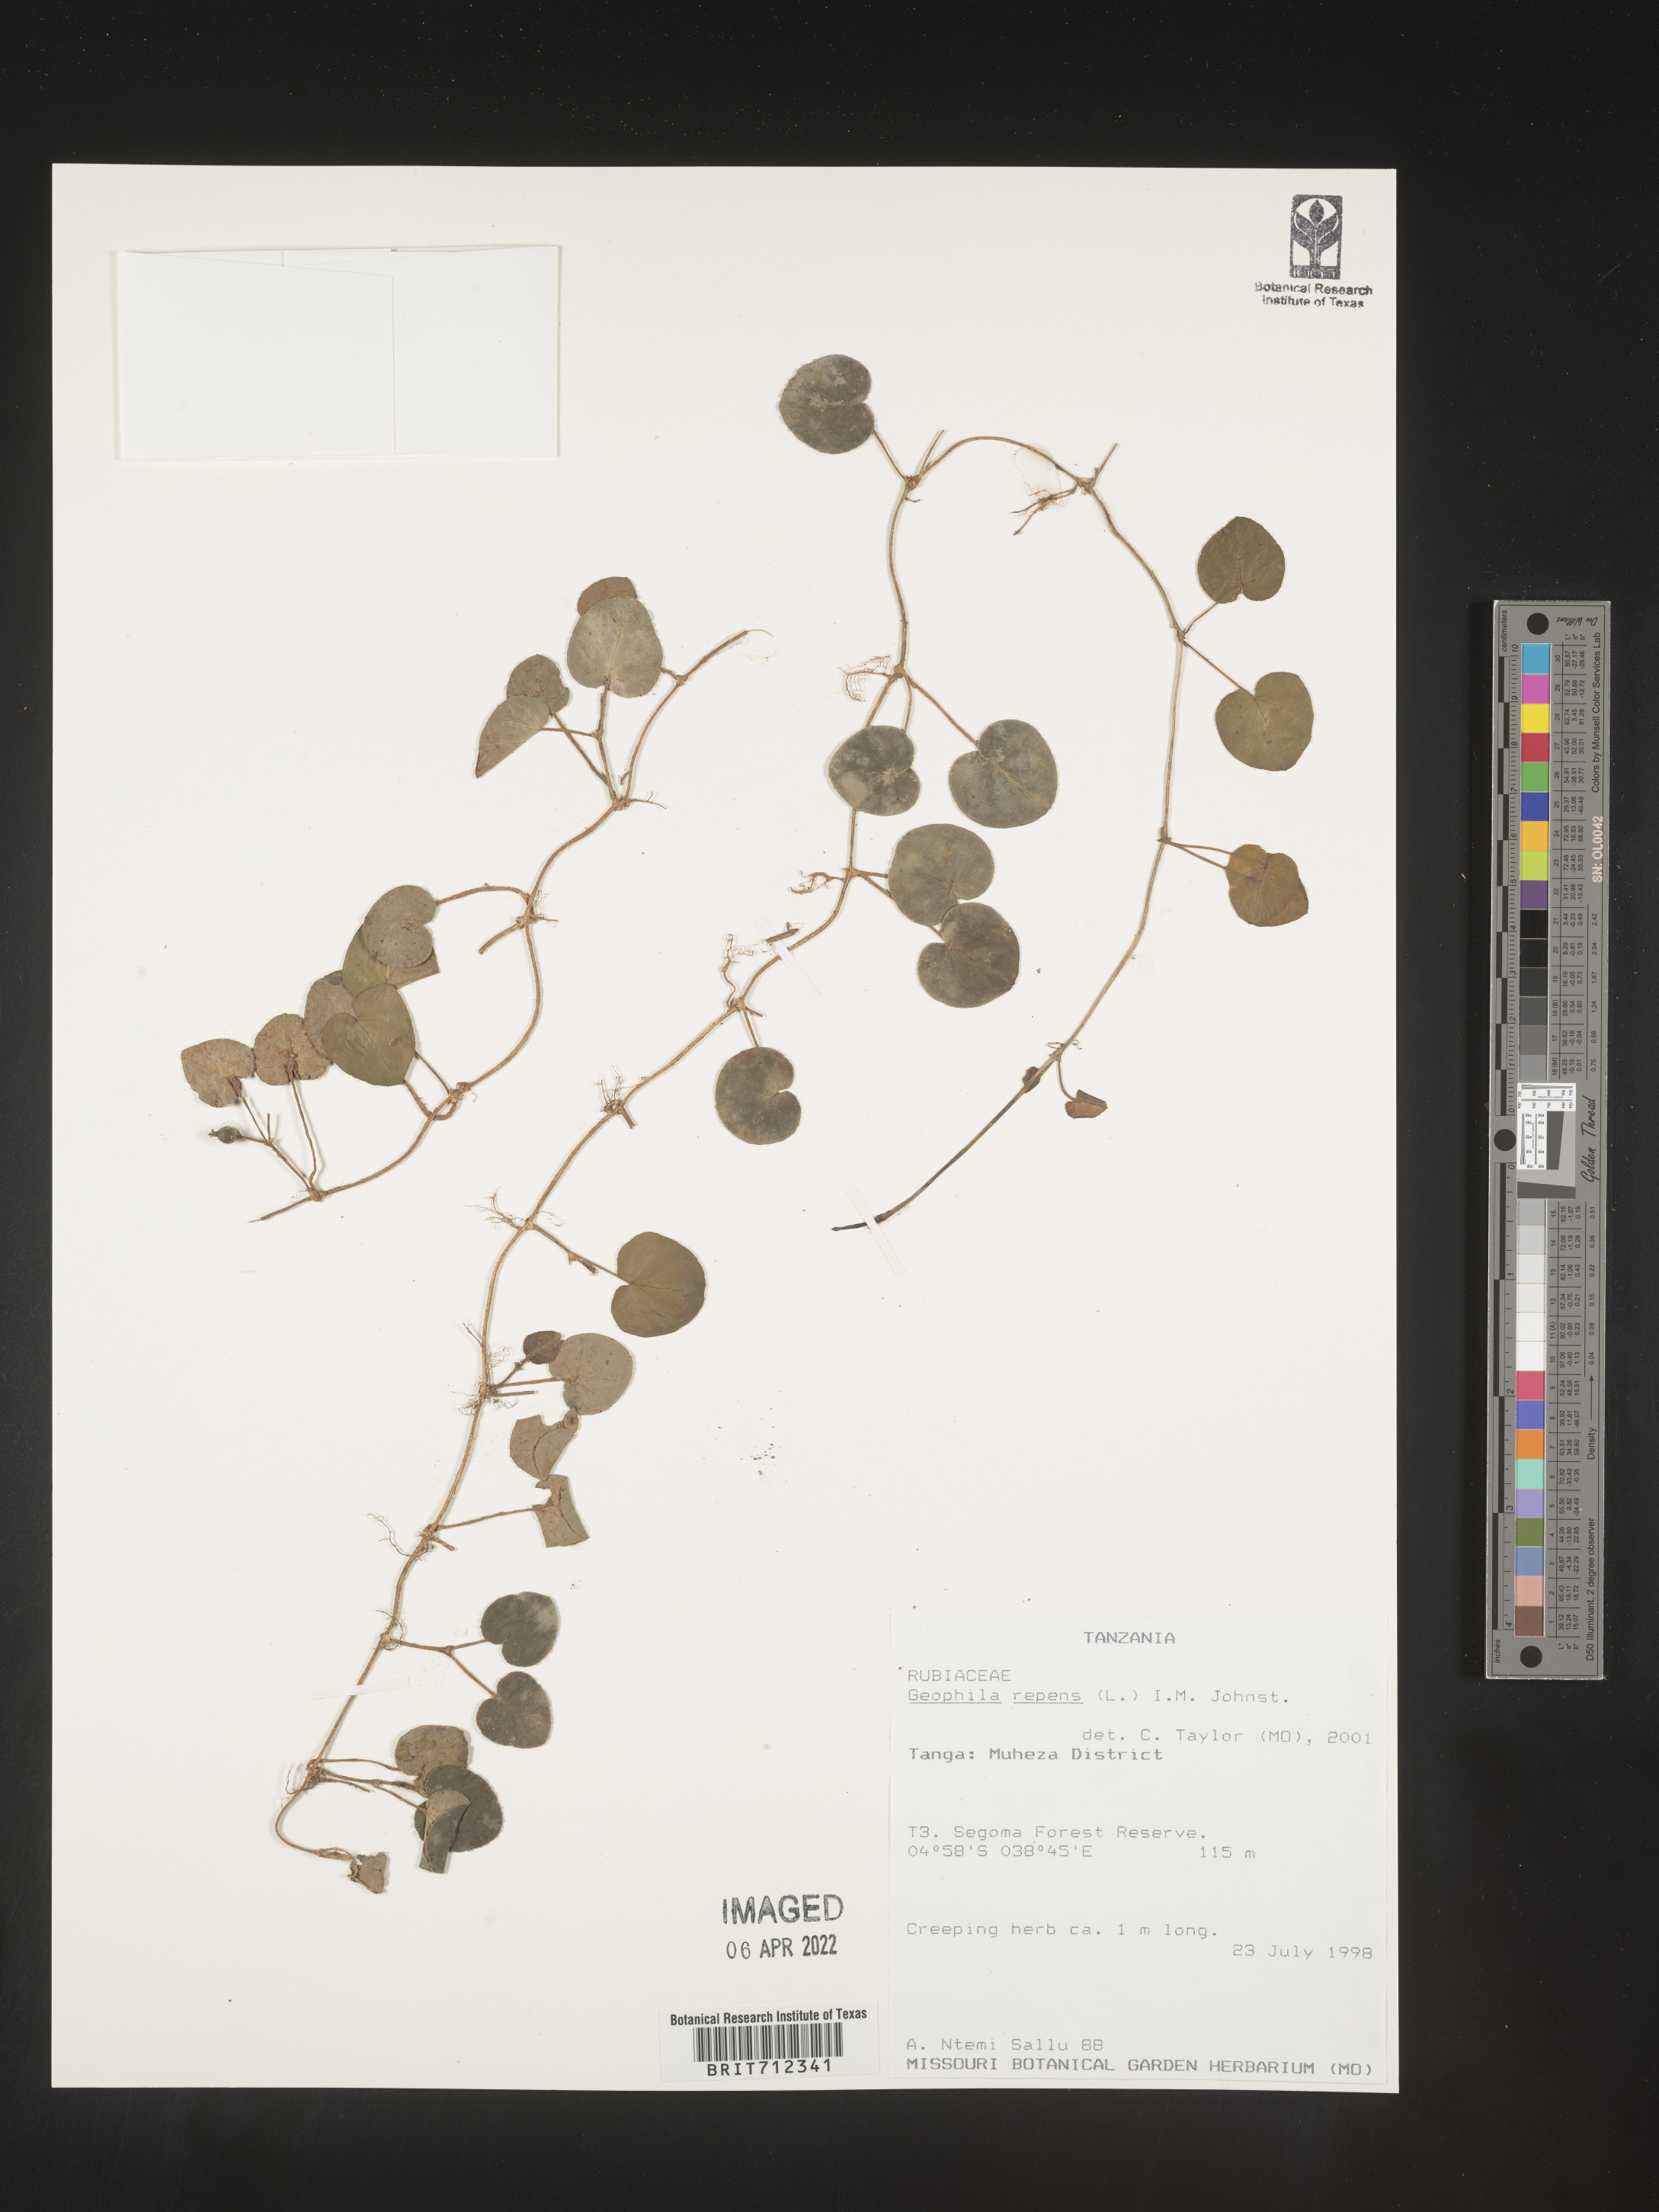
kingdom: Plantae
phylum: Tracheophyta
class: Magnoliopsida
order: Gentianales
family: Rubiaceae
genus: Geophila
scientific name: Geophila
